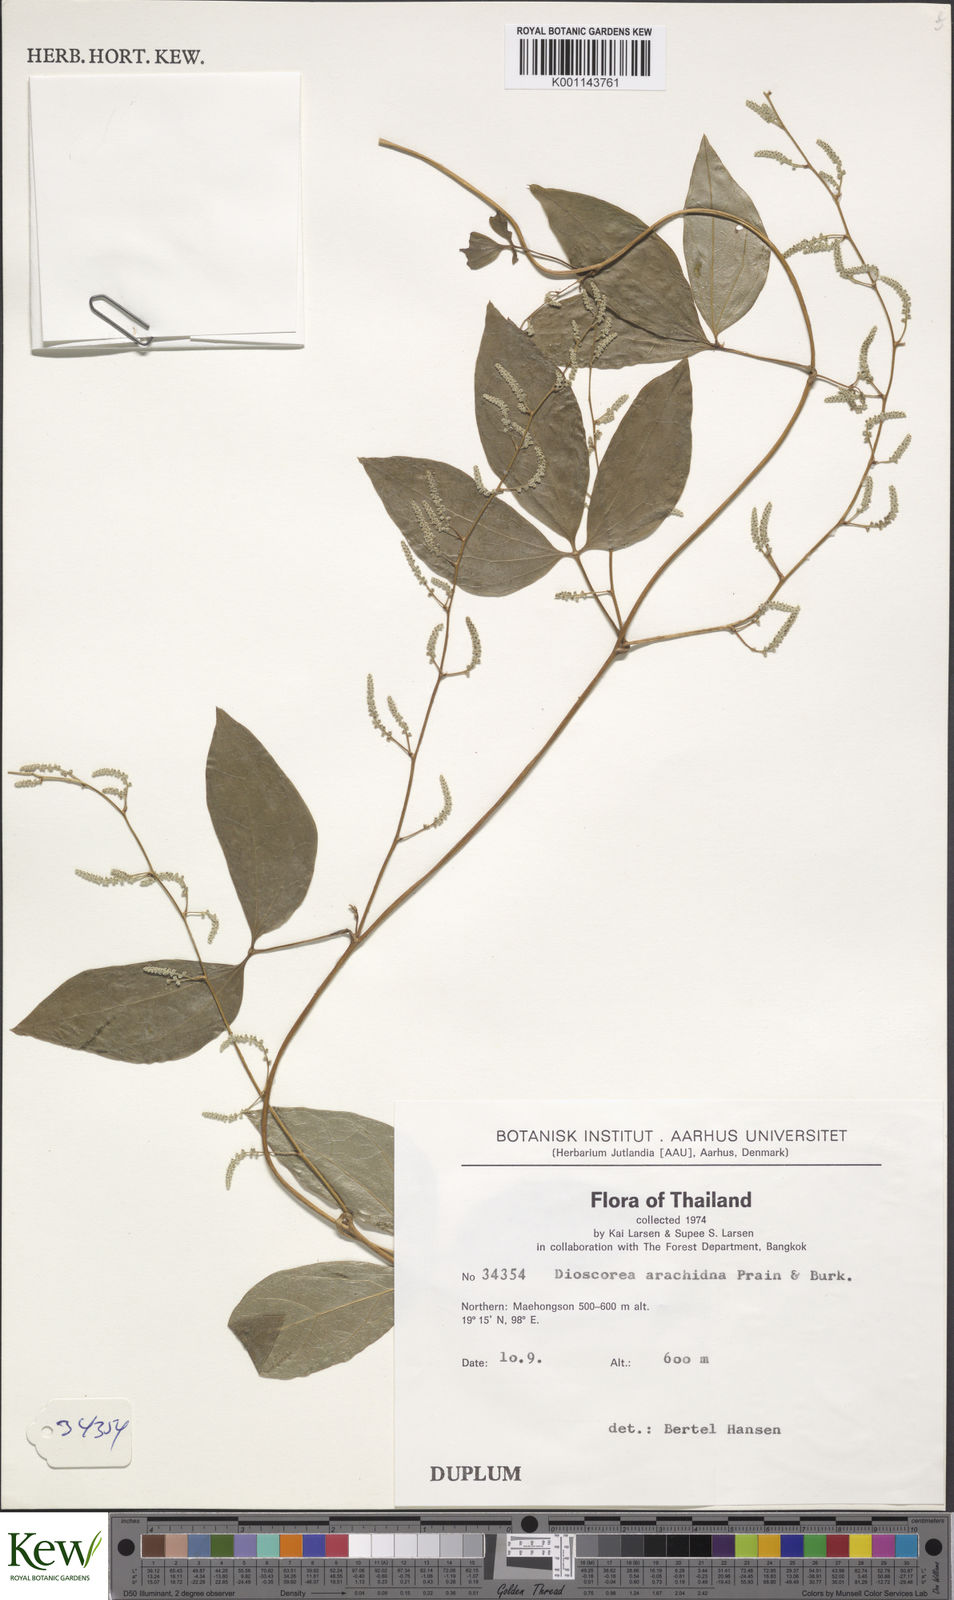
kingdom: Plantae
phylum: Tracheophyta
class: Liliopsida
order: Dioscoreales
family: Dioscoreaceae
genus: Dioscorea
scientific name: Dioscorea arachidna
